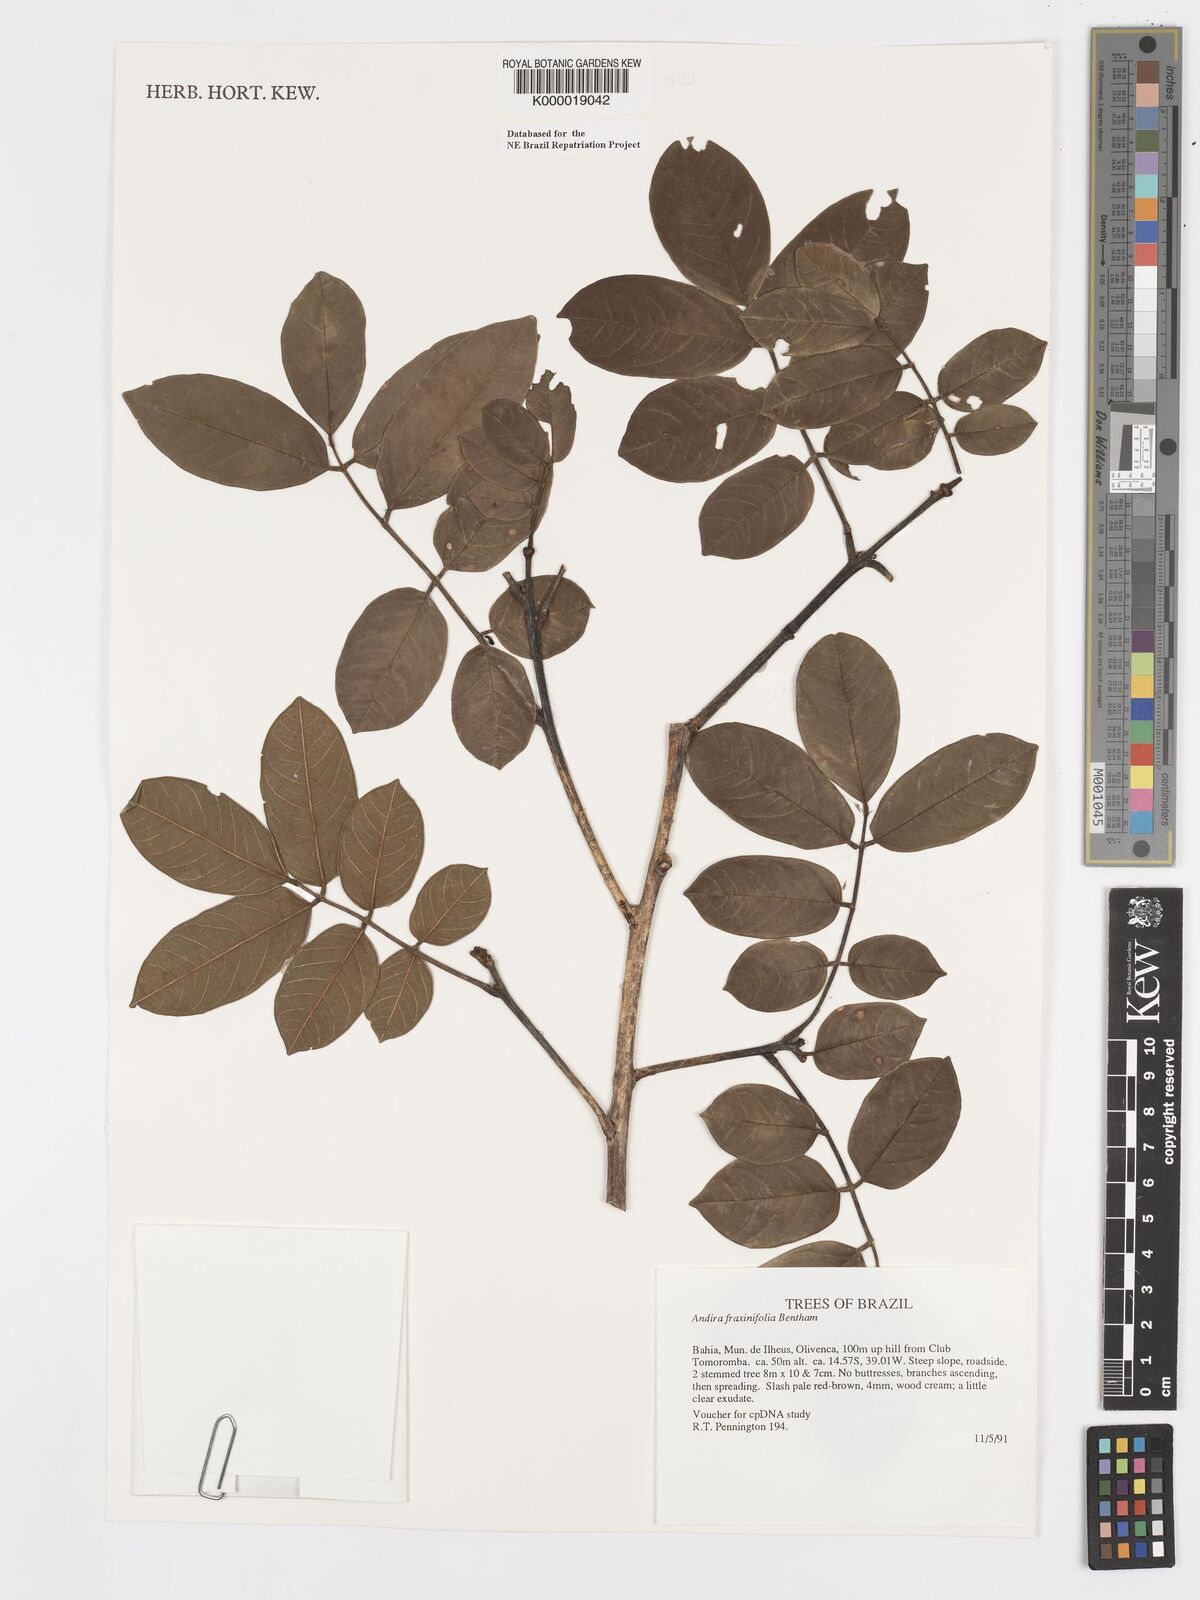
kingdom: Plantae
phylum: Tracheophyta
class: Magnoliopsida
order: Fabales
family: Fabaceae
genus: Andira
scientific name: Andira fraxinifolia
